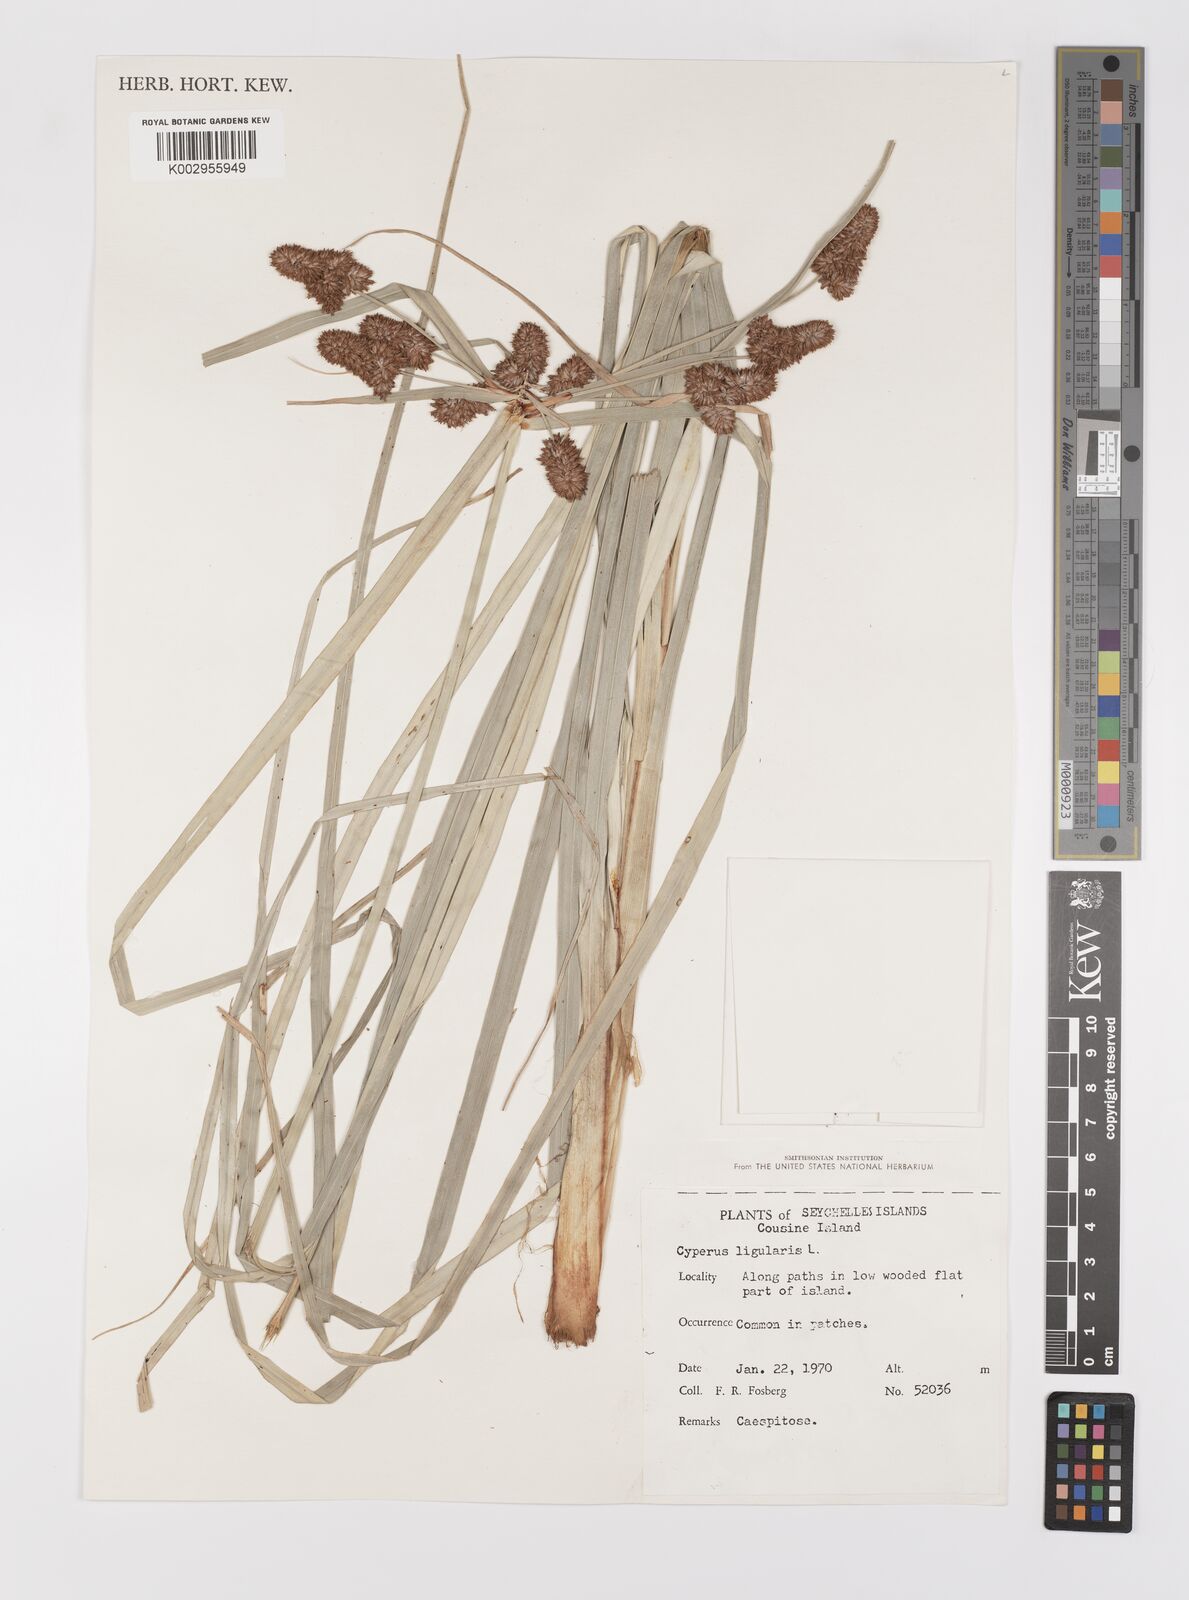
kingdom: Plantae
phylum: Tracheophyta
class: Liliopsida
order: Poales
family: Cyperaceae
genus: Cyperus
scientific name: Cyperus ligularis
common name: Swamp flat sedge
